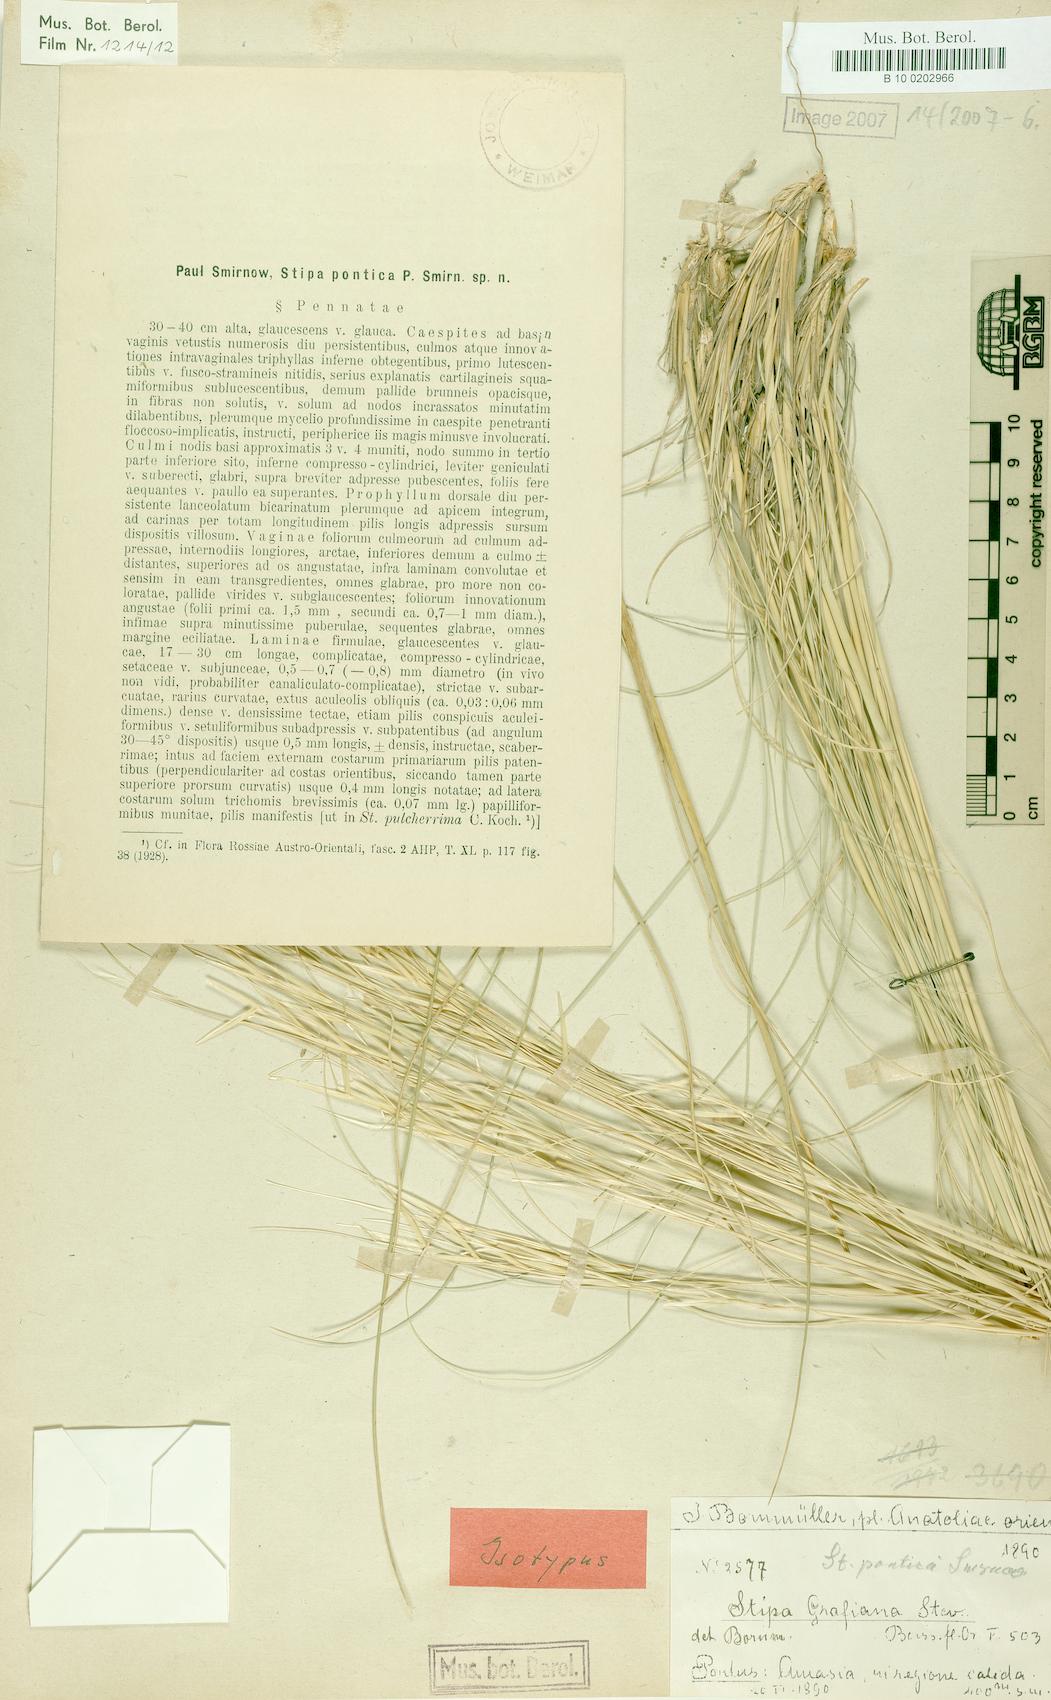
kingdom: Plantae
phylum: Tracheophyta
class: Liliopsida
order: Poales
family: Poaceae
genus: Stipa
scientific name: Stipa pontica
